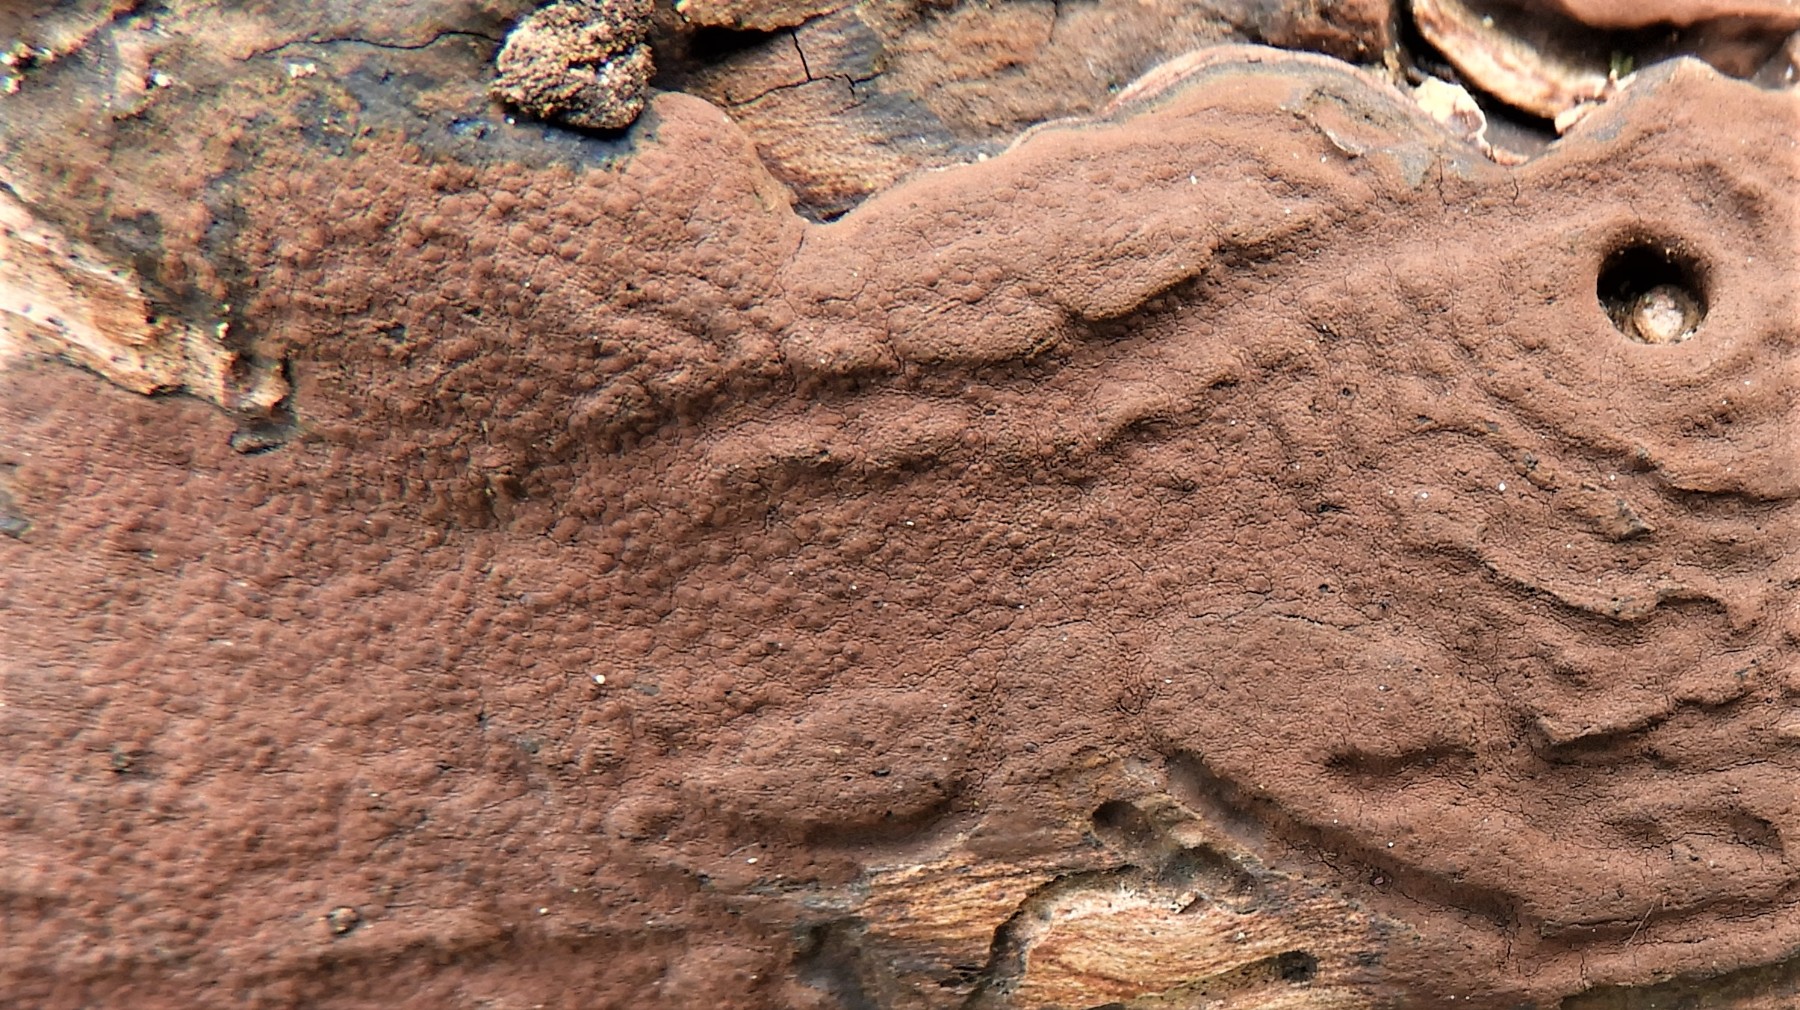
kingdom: Fungi
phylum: Ascomycota
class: Sordariomycetes
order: Xylariales
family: Hypoxylaceae
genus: Hypoxylon
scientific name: Hypoxylon petriniae
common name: nedsænket kulbær
